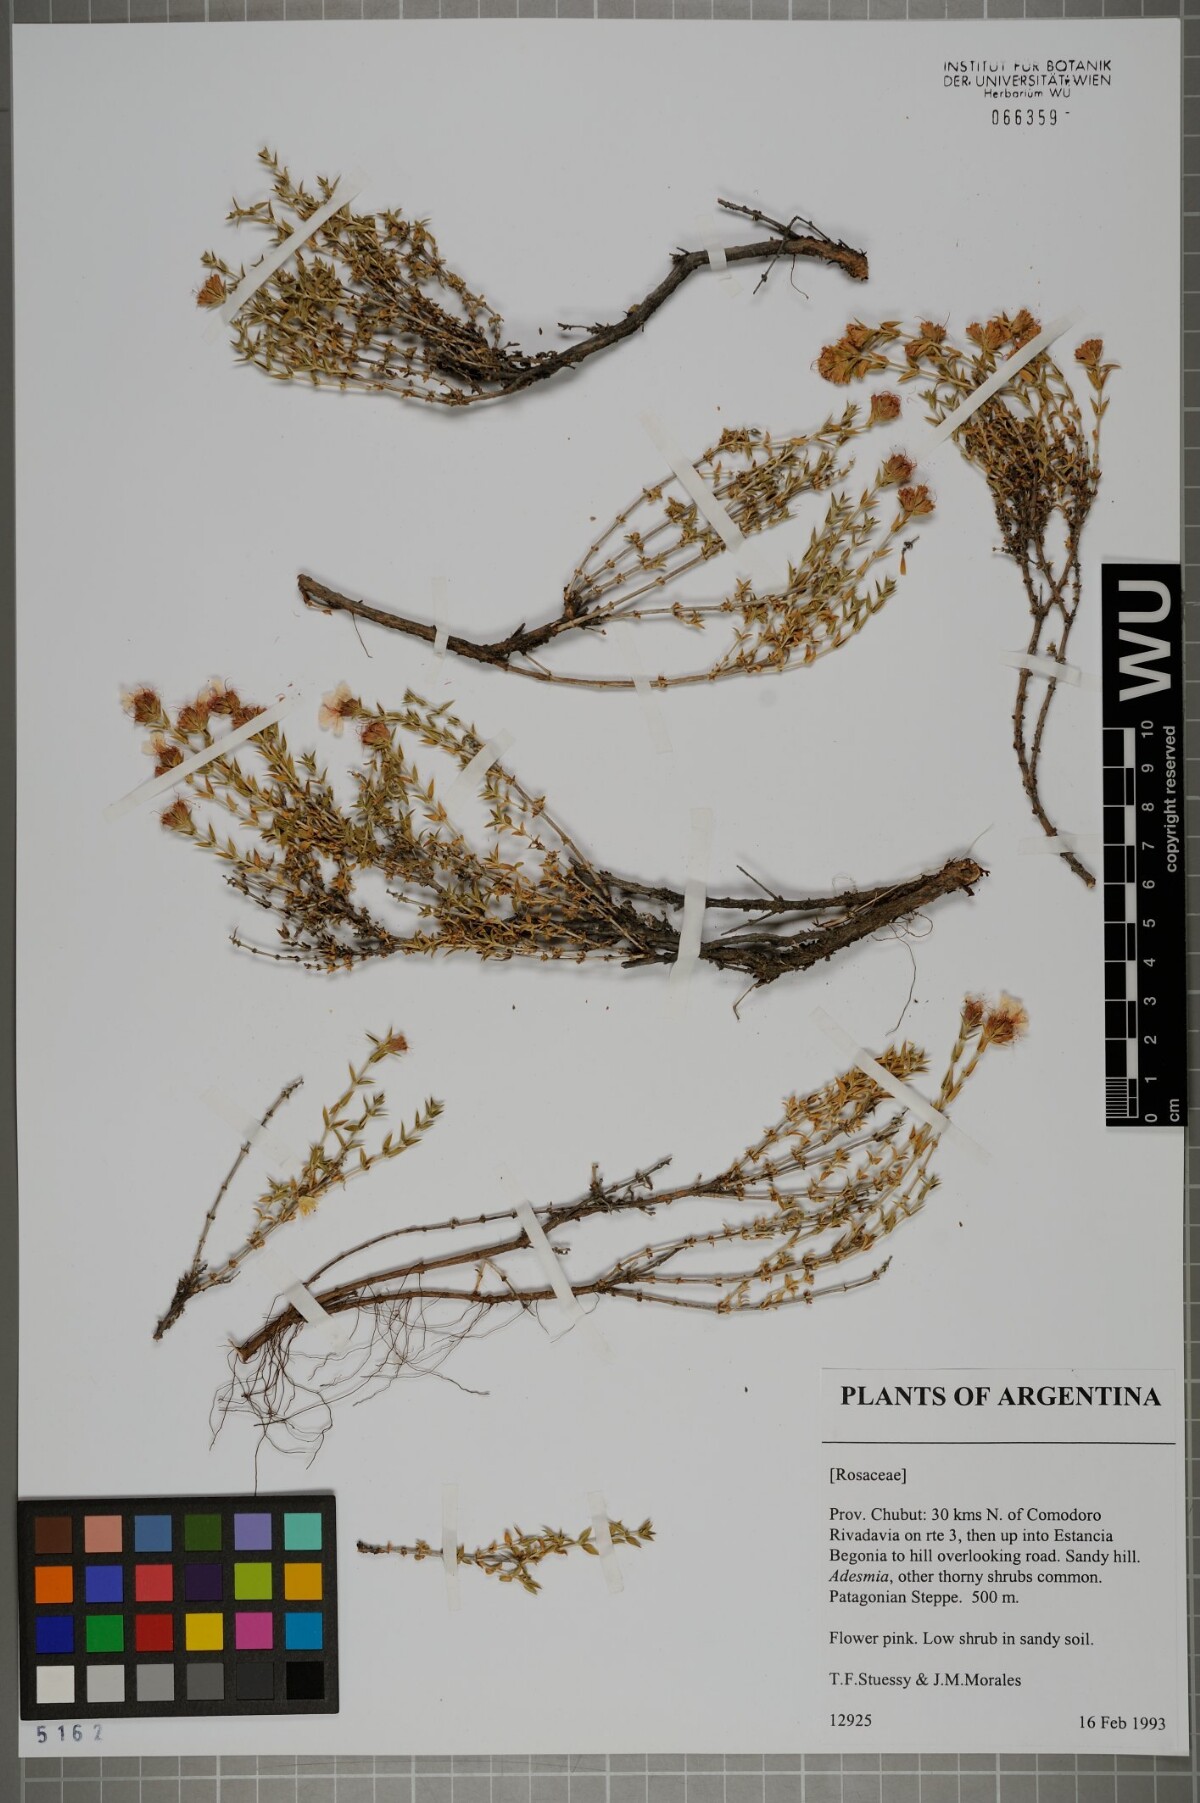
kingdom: Plantae
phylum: Tracheophyta
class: Magnoliopsida
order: Rosales
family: Rosaceae
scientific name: Rosaceae
